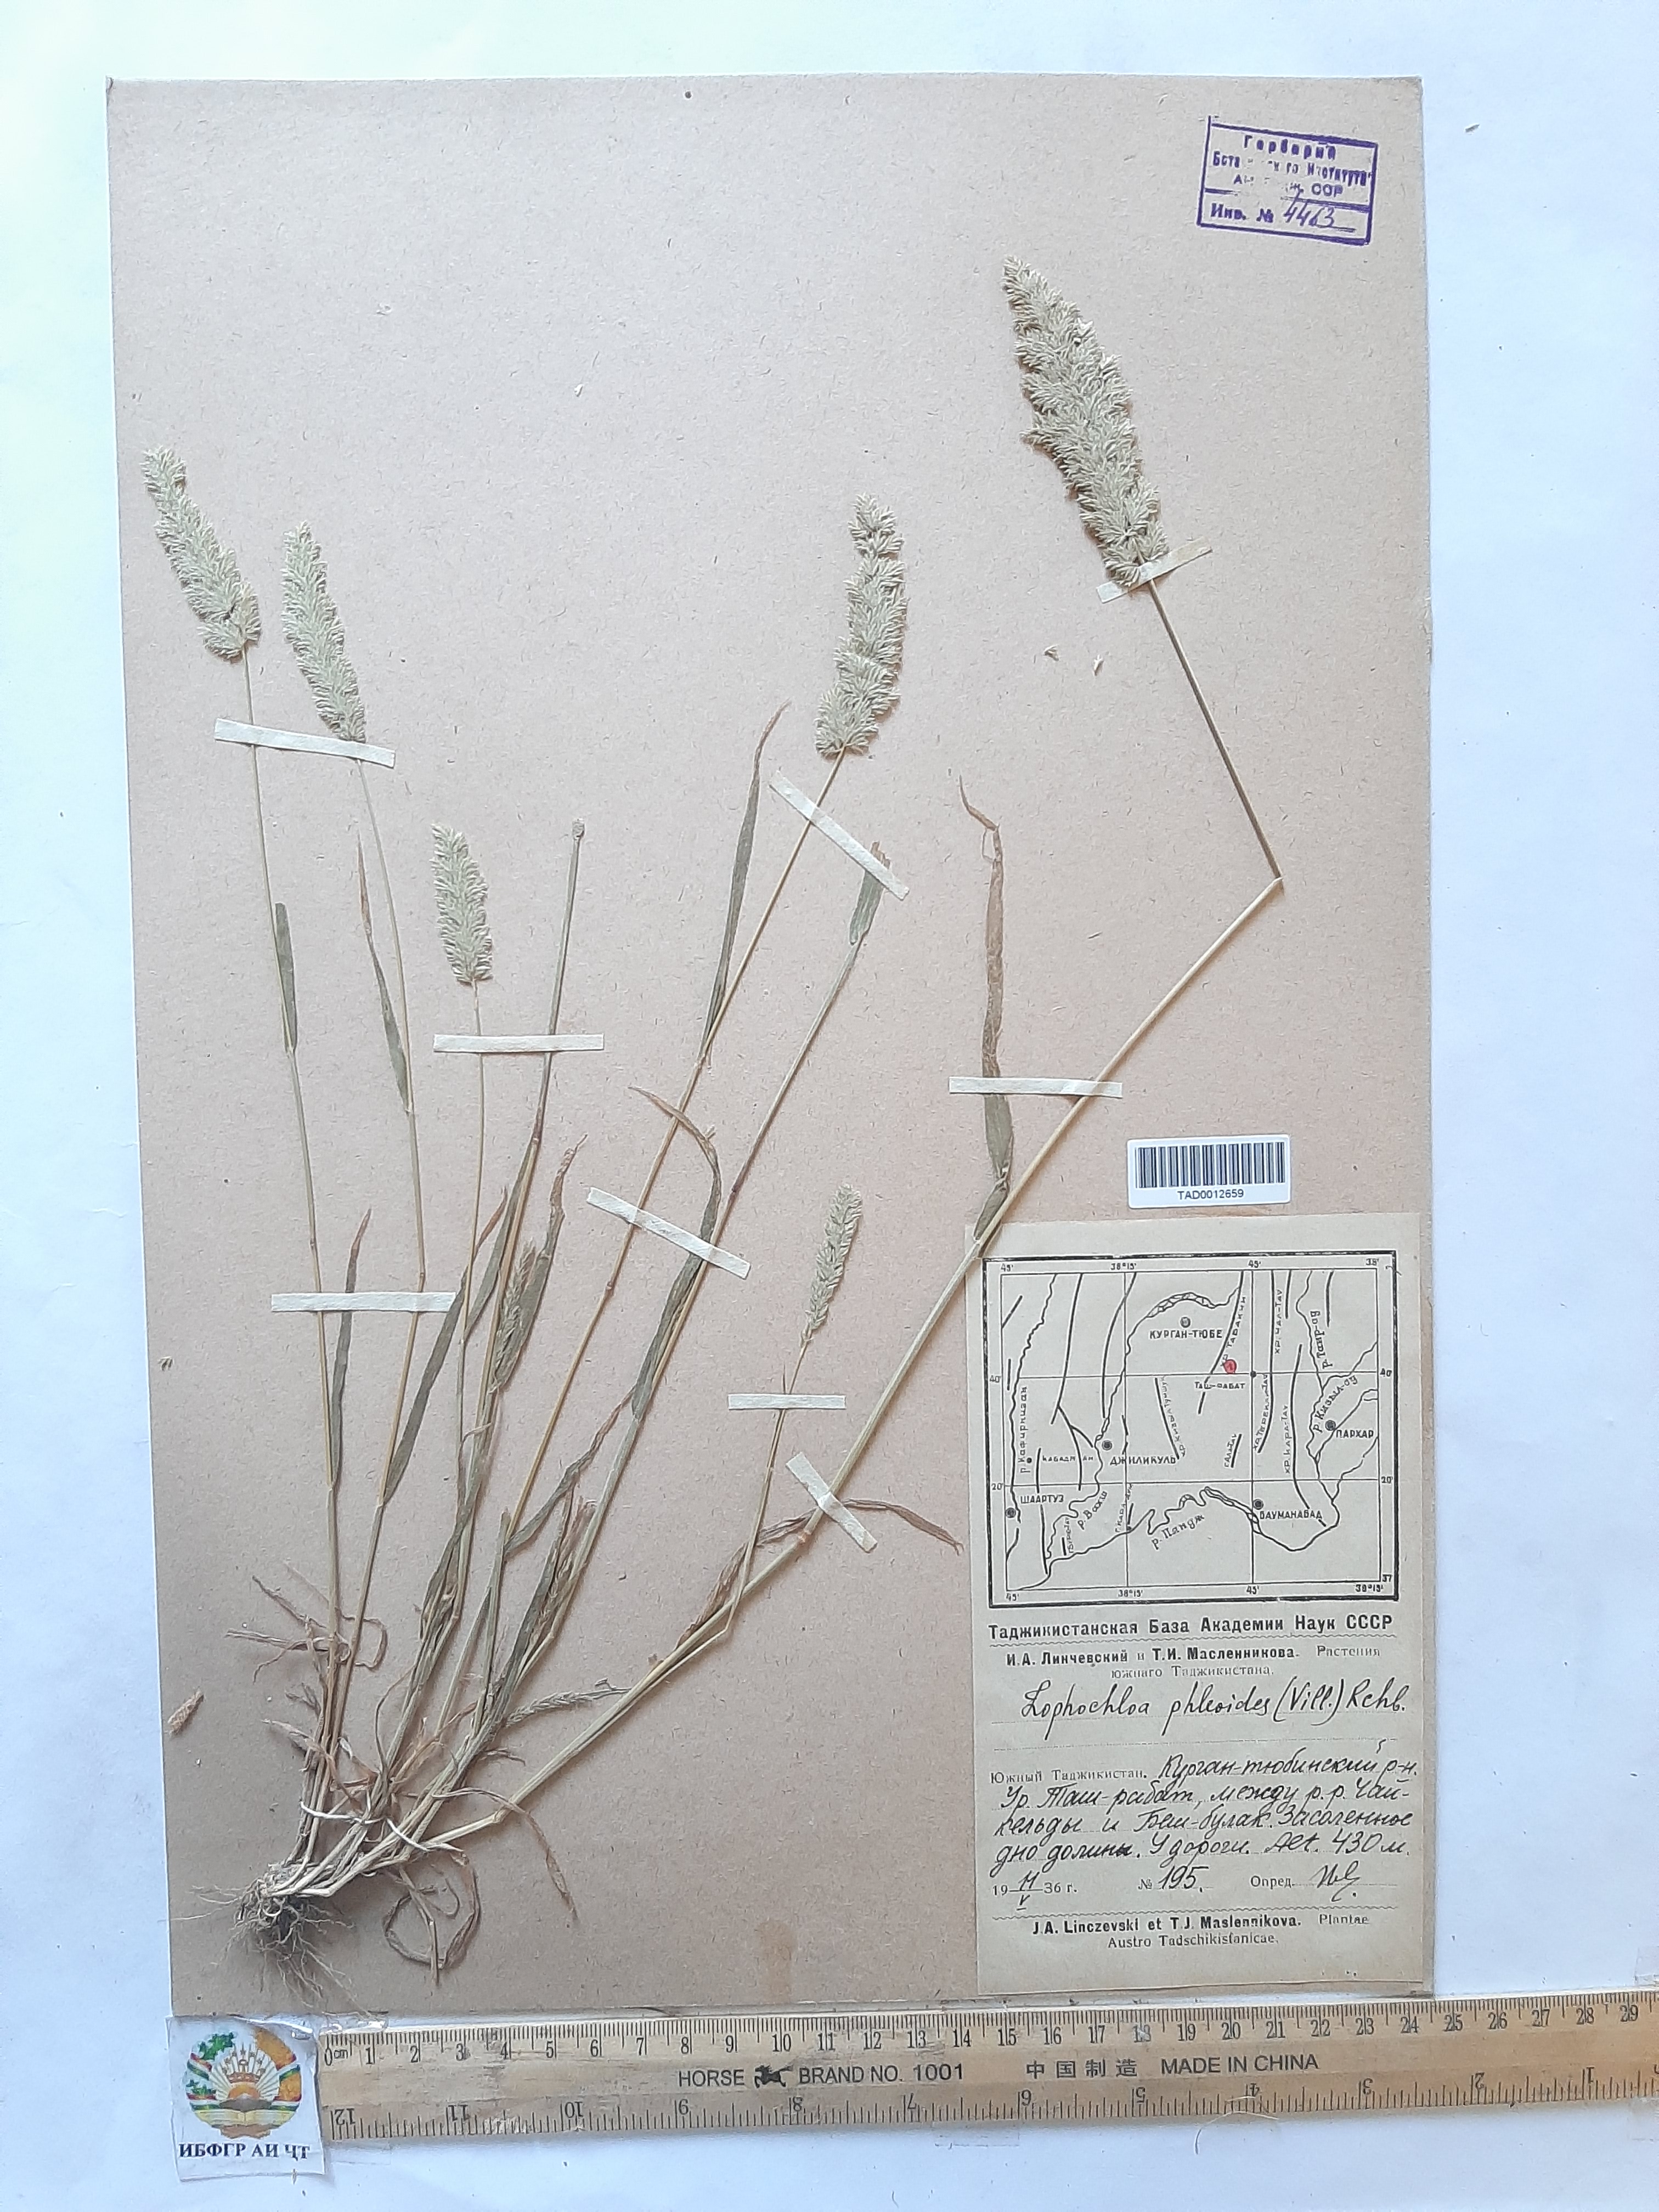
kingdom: Plantae
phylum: Tracheophyta
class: Liliopsida
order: Poales
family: Poaceae
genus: Rostraria
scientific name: Rostraria cristata
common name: Mediterranean hair-grass
